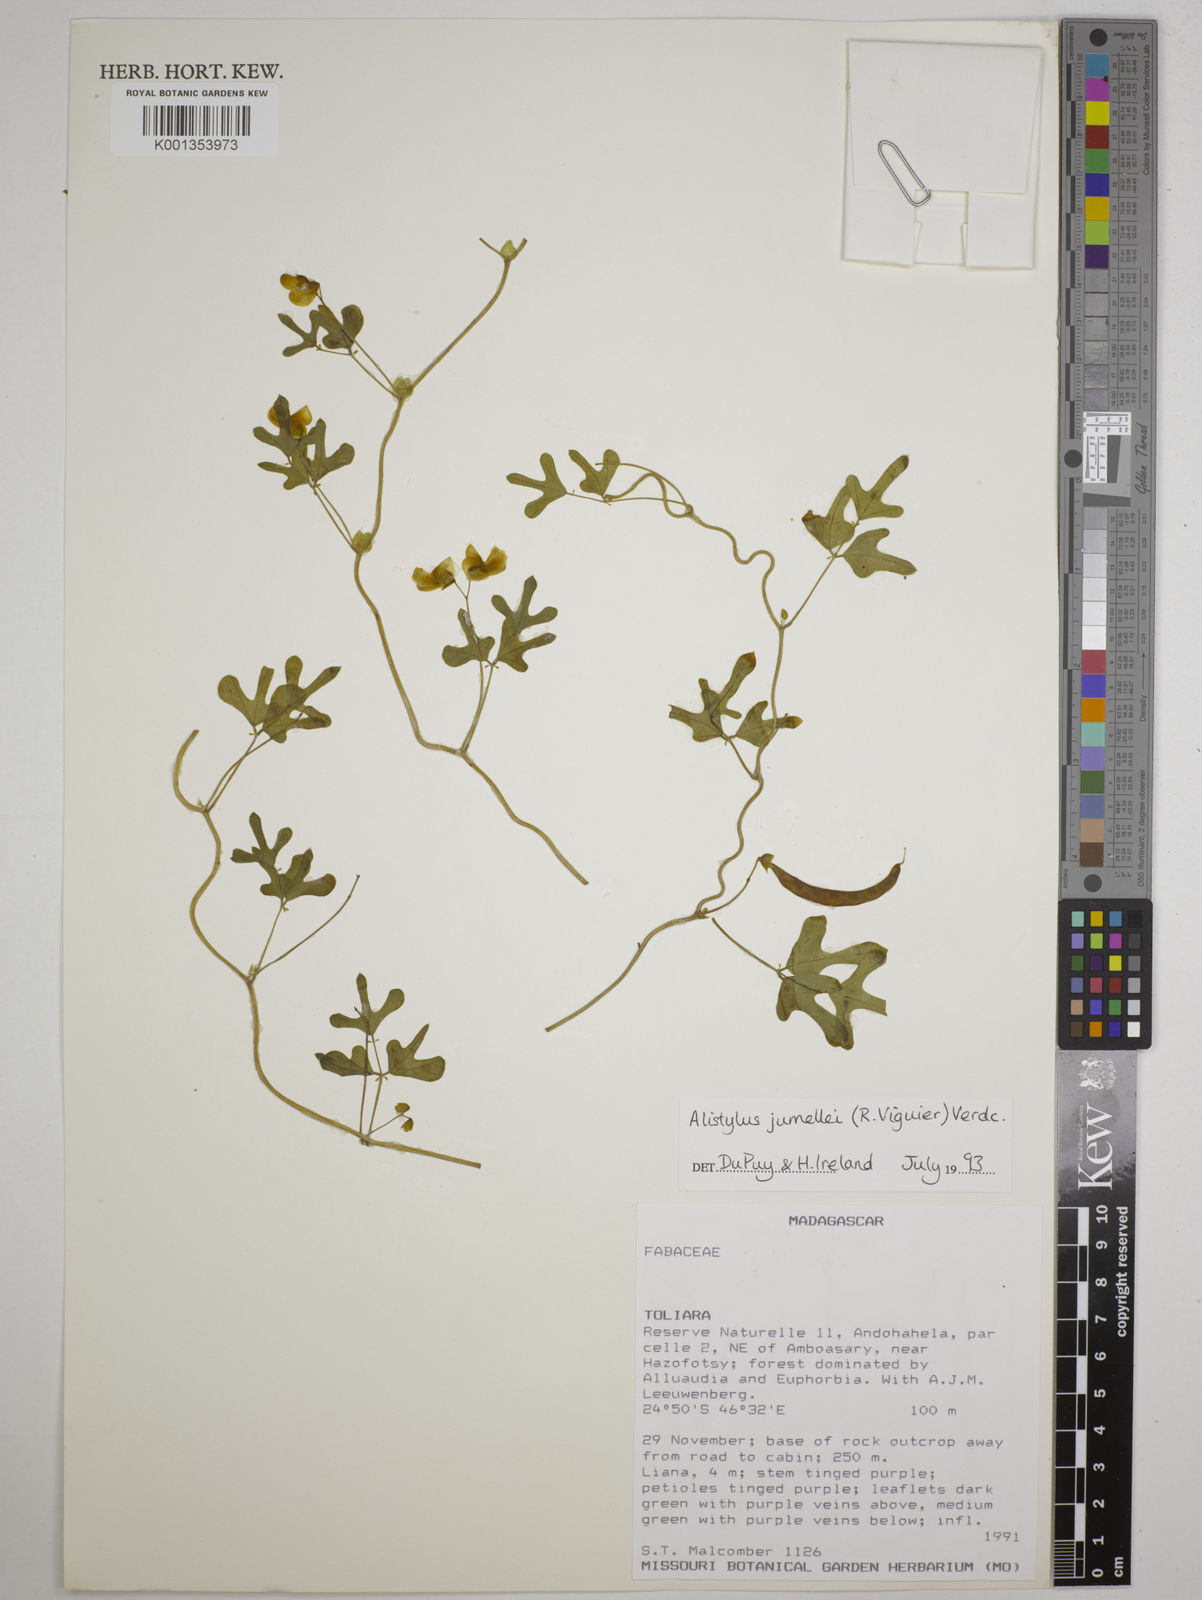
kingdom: Plantae
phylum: Tracheophyta
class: Magnoliopsida
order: Fabales
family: Fabaceae
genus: Alistilus
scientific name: Alistilus jumellei
